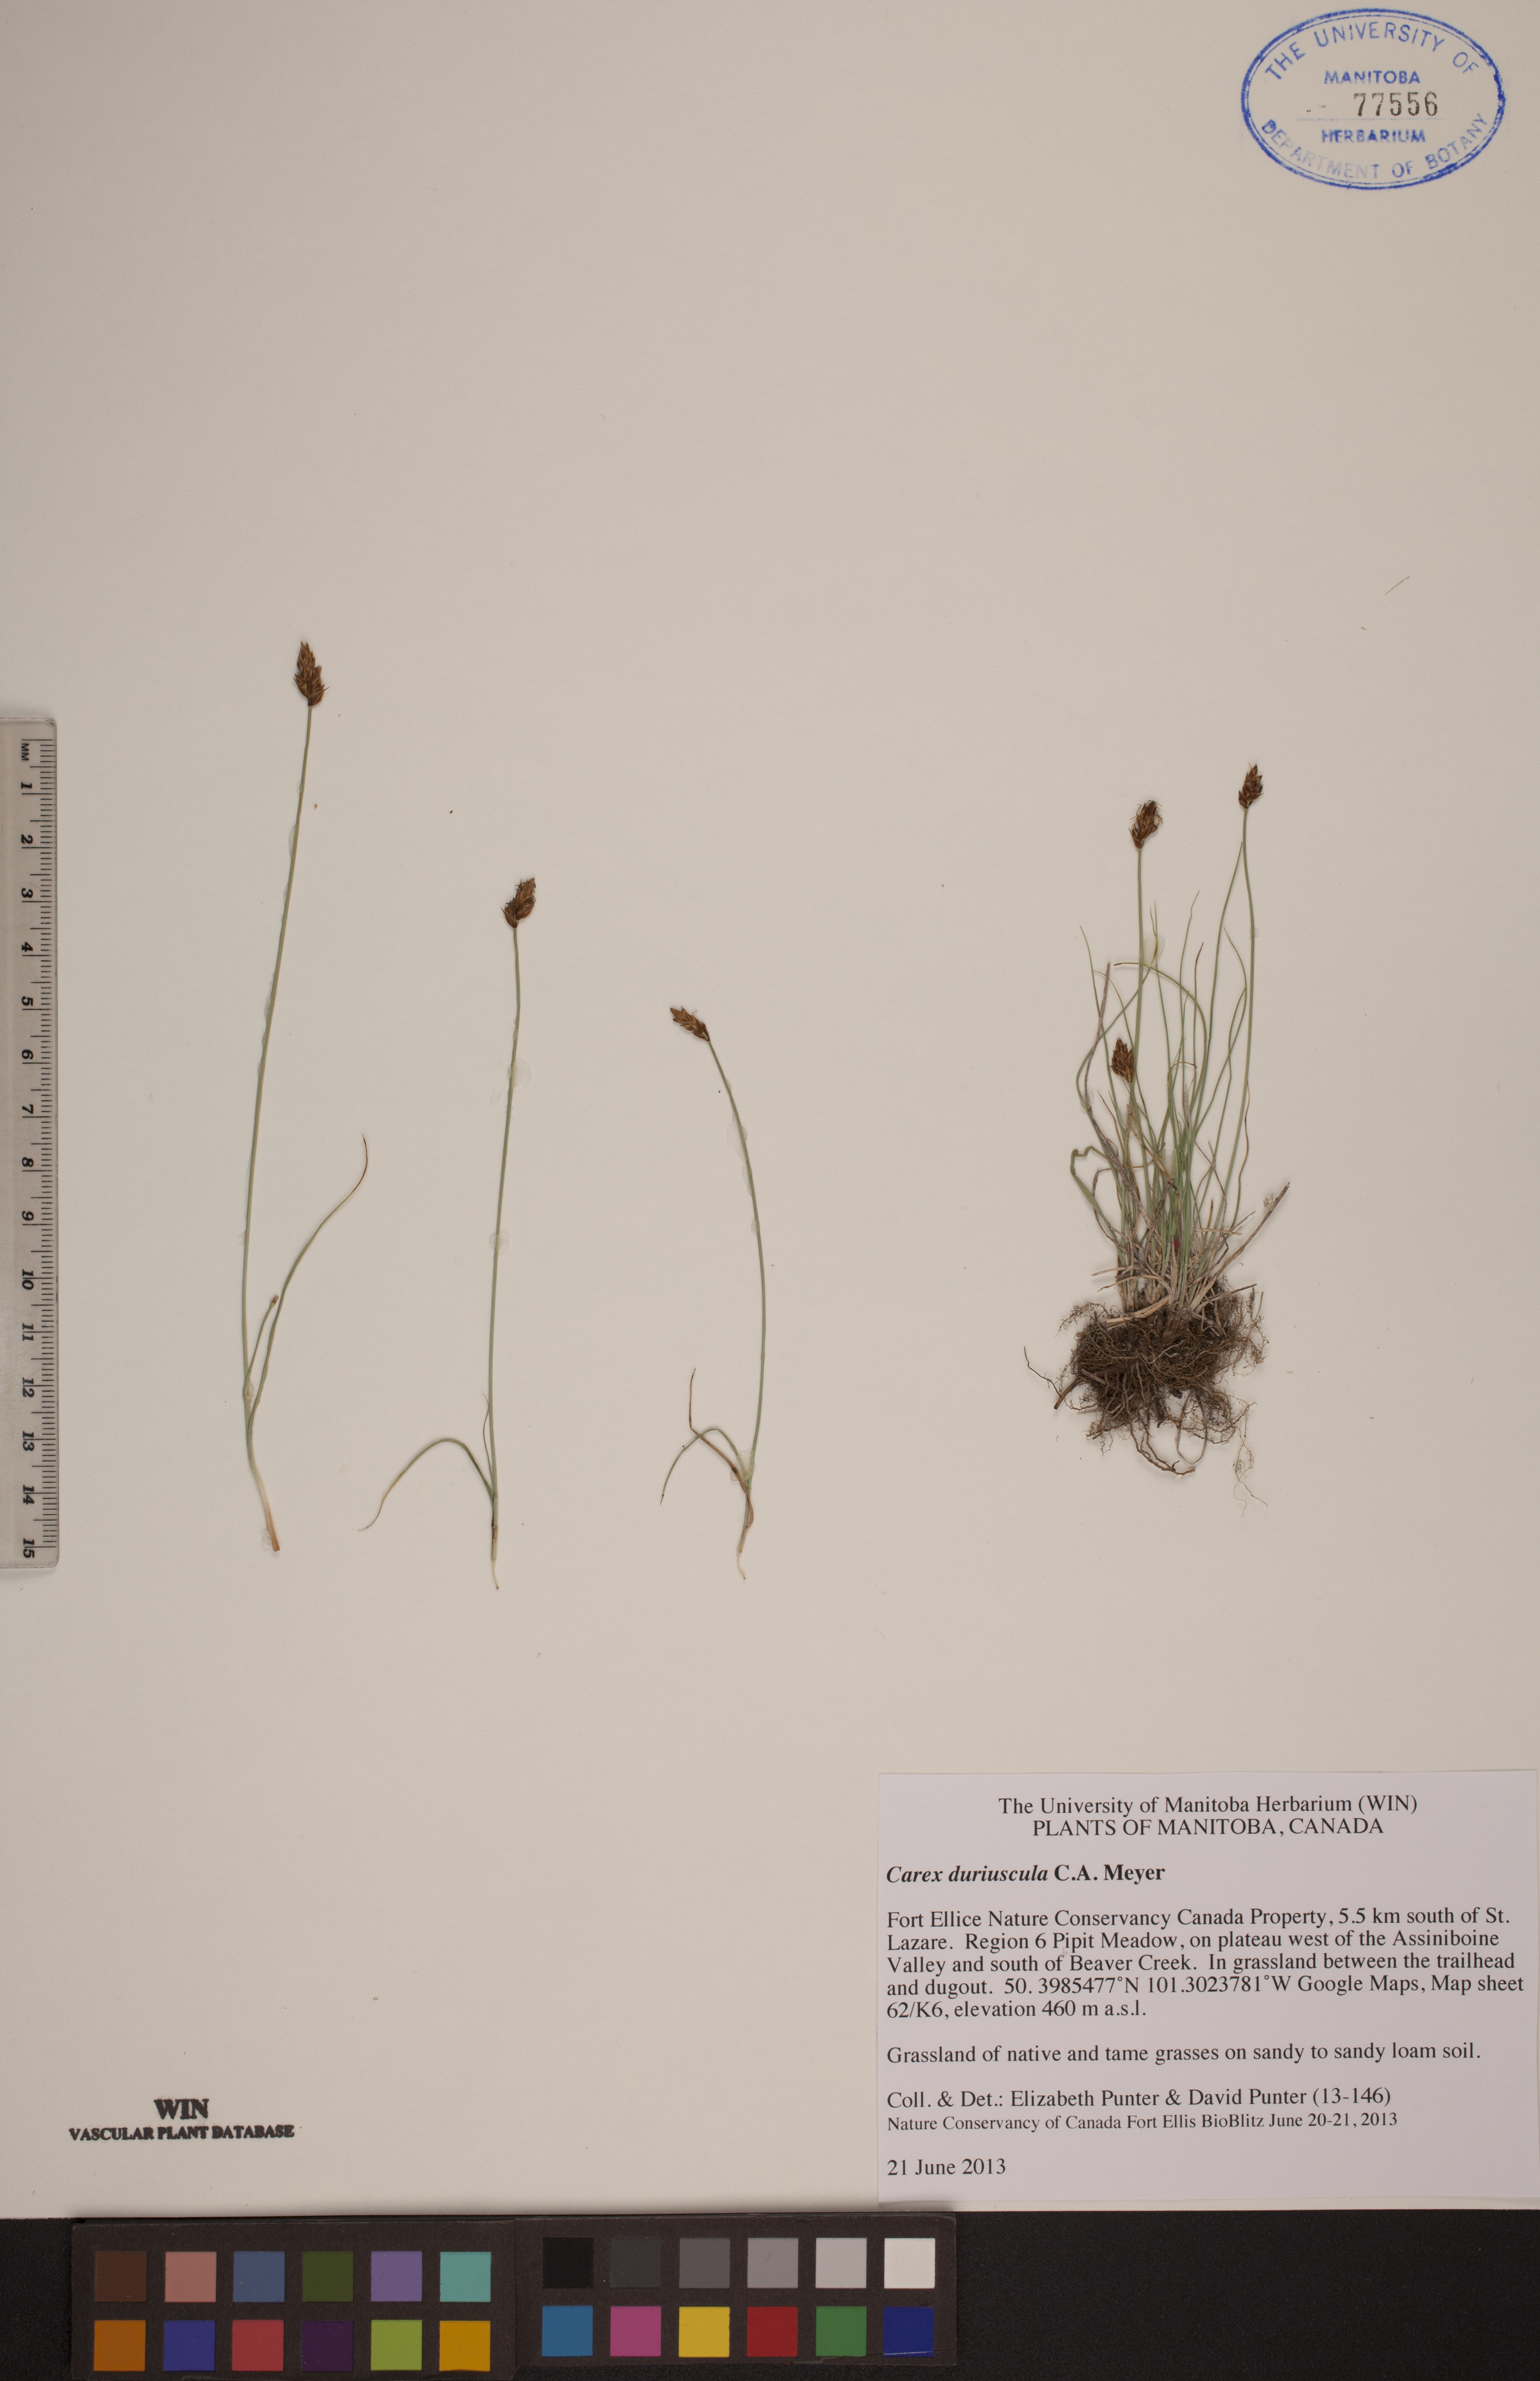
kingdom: Plantae
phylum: Tracheophyta
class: Liliopsida
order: Poales
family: Cyperaceae
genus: Carex
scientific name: Carex duriuscula
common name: Involute-leaved sedge
